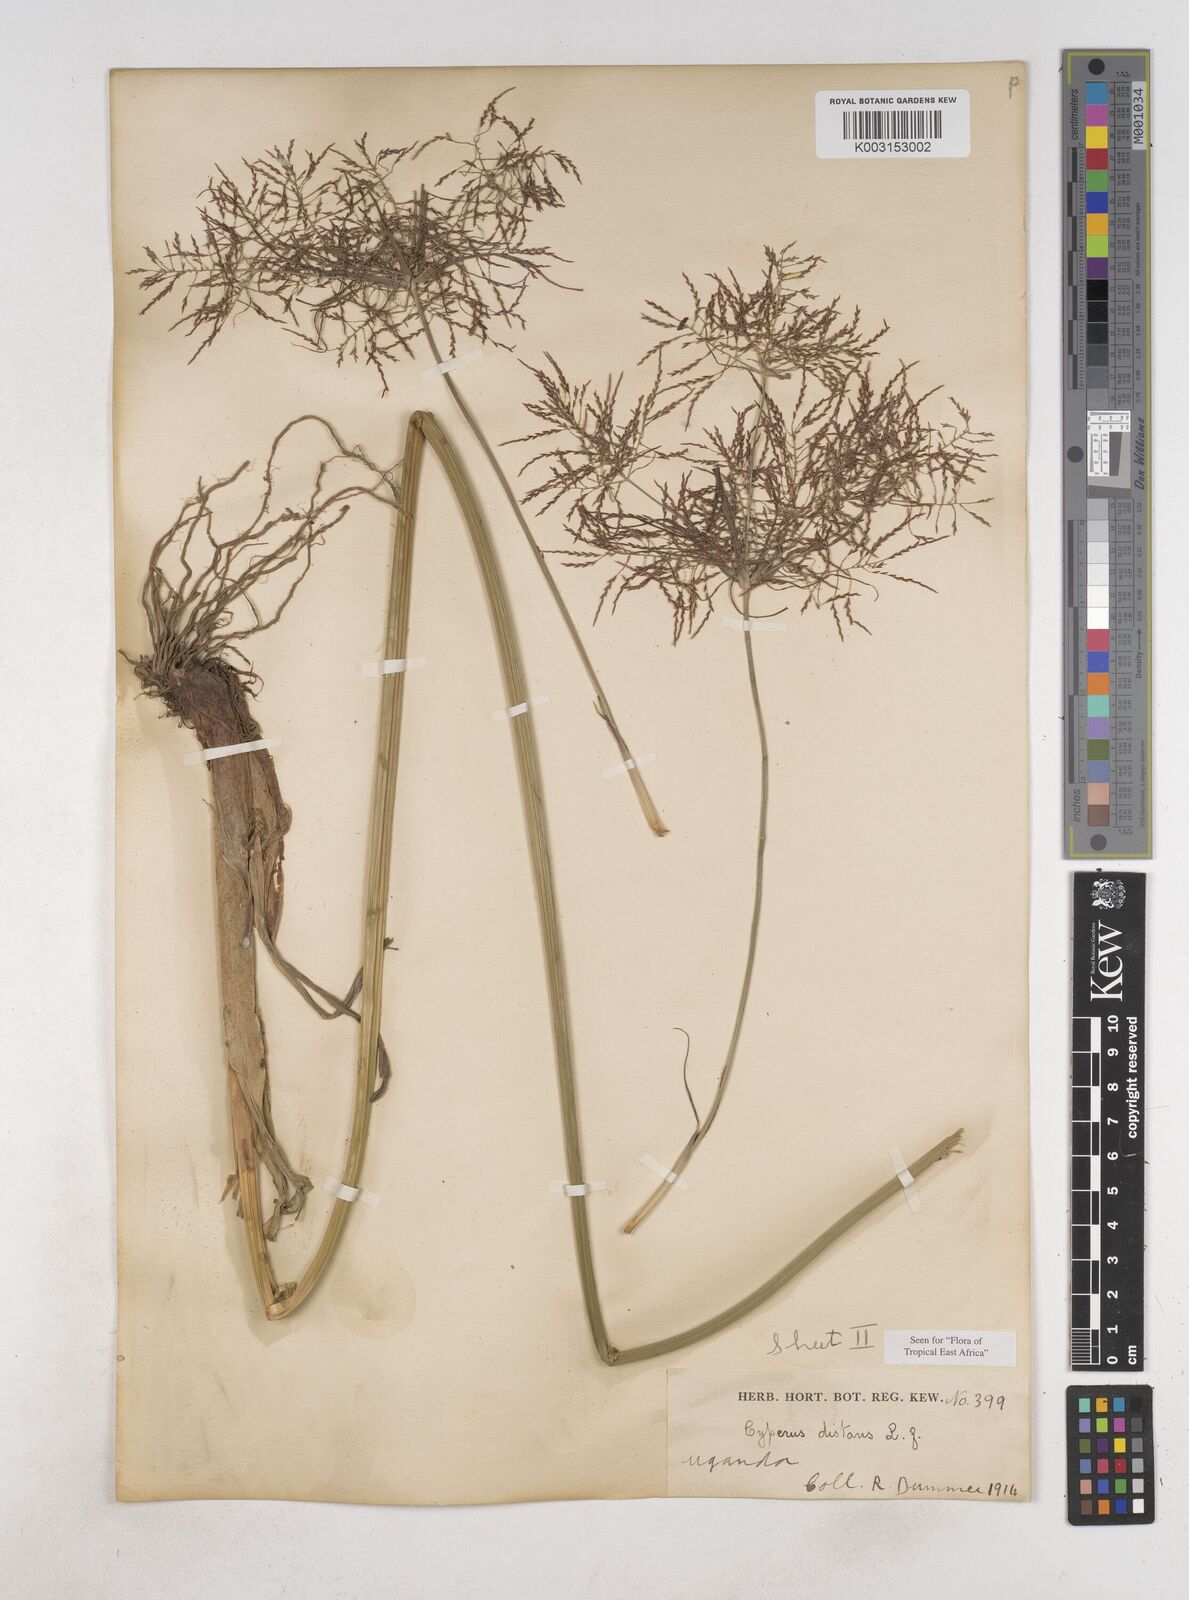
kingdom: Plantae
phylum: Tracheophyta
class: Liliopsida
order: Poales
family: Cyperaceae
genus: Cyperus
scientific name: Cyperus distans
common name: Slender cyperus
